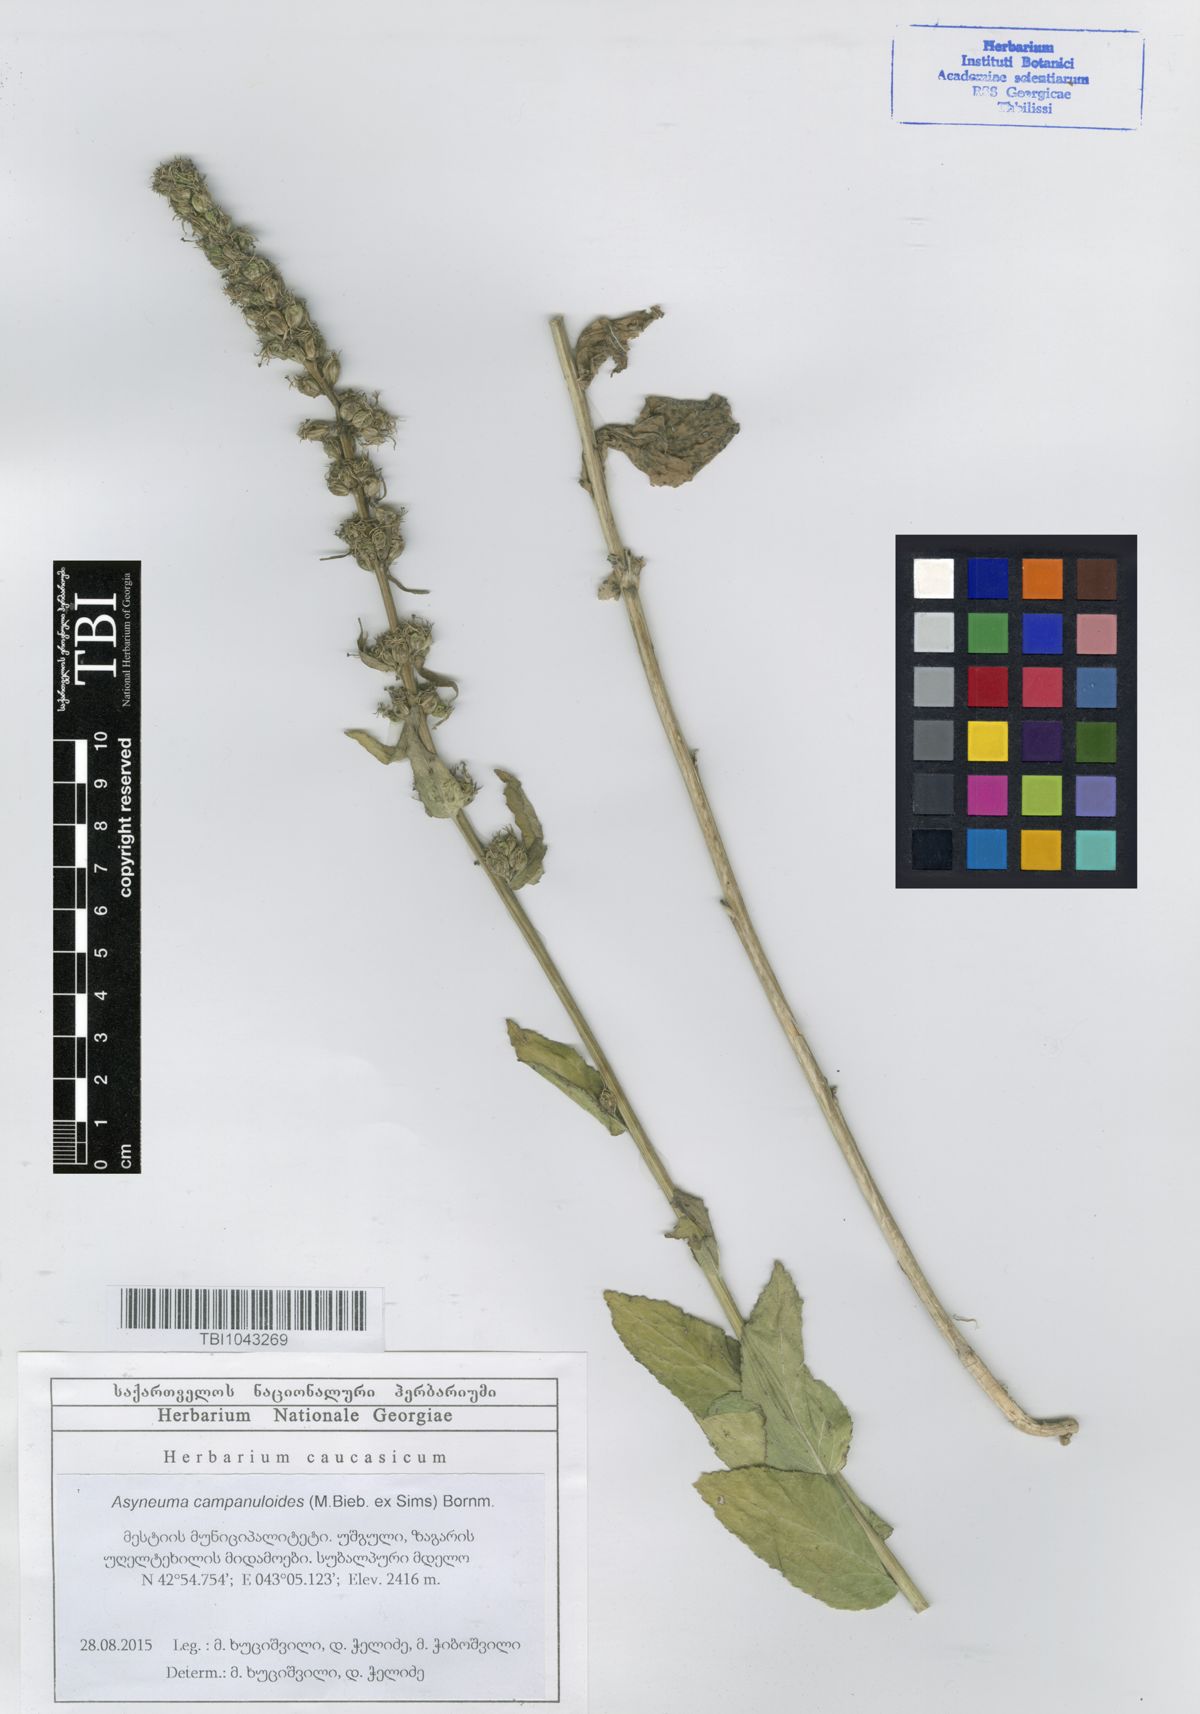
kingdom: Plantae
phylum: Tracheophyta
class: Magnoliopsida
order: Asterales
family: Campanulaceae
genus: Asyneuma
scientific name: Asyneuma campanuloides
